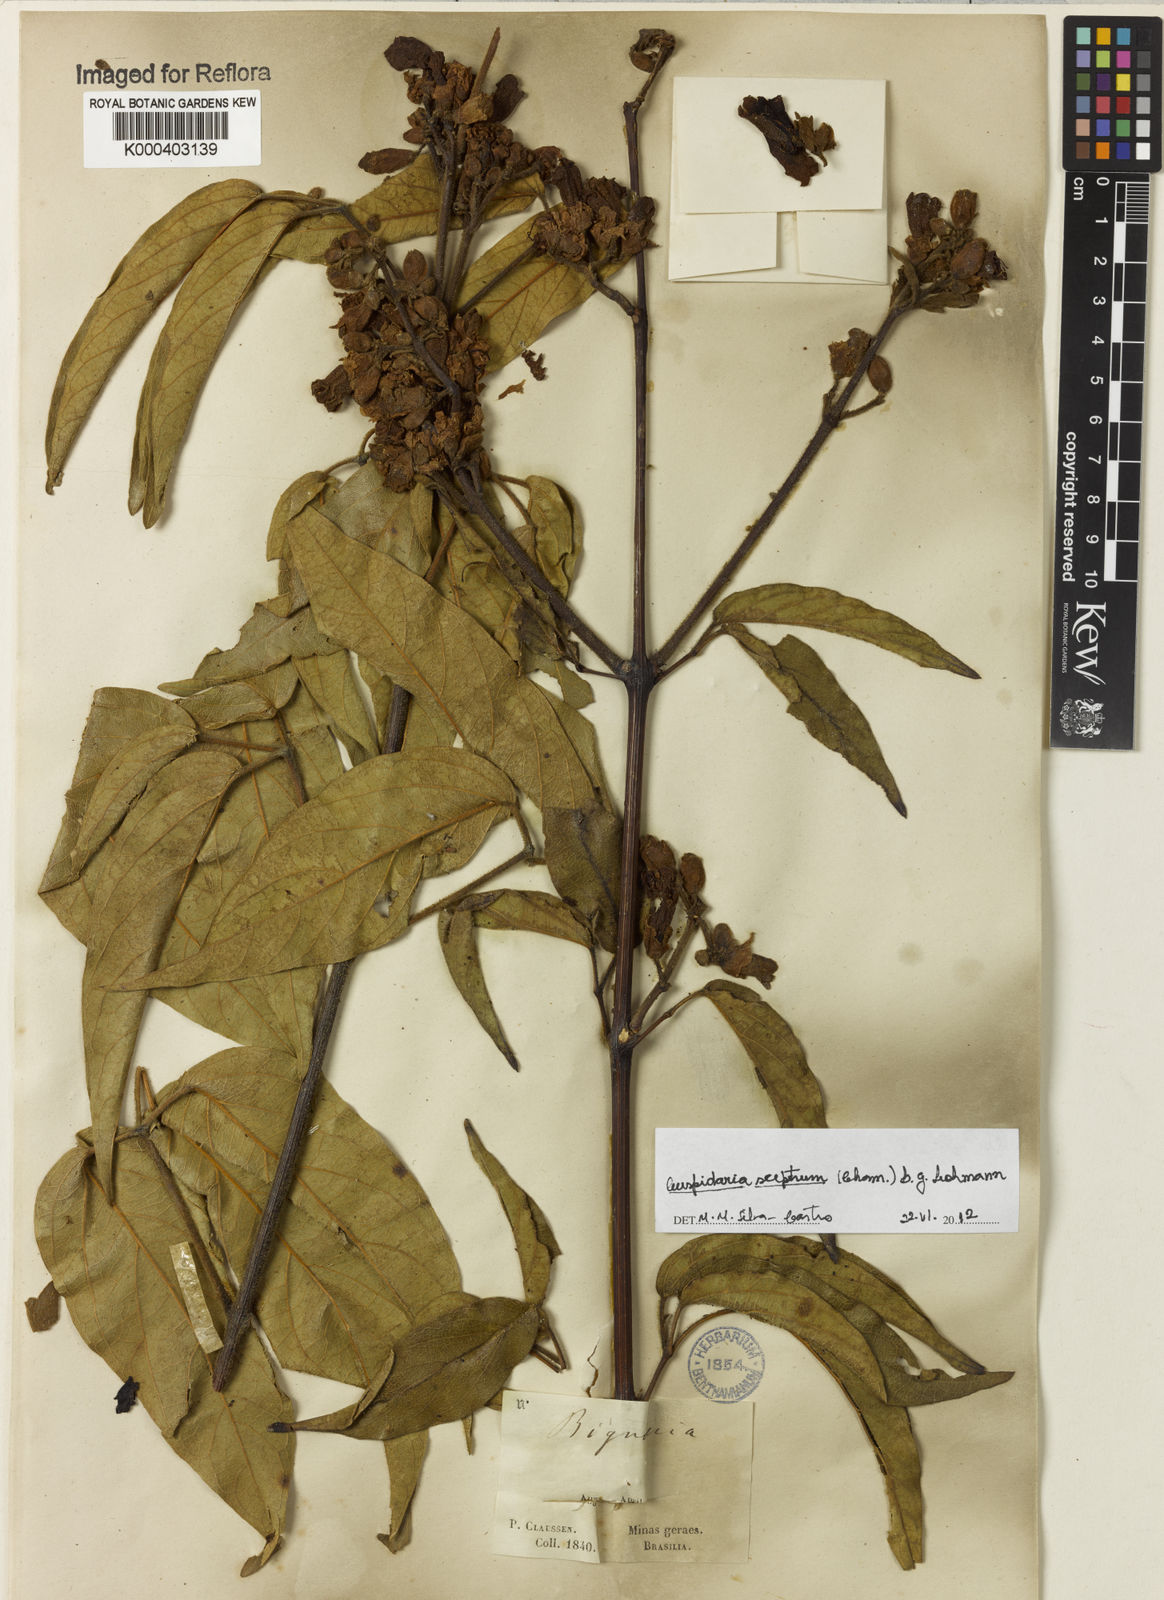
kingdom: Plantae
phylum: Tracheophyta
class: Magnoliopsida
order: Lamiales
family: Bignoniaceae
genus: Cuspidaria
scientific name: Cuspidaria sceptrum
